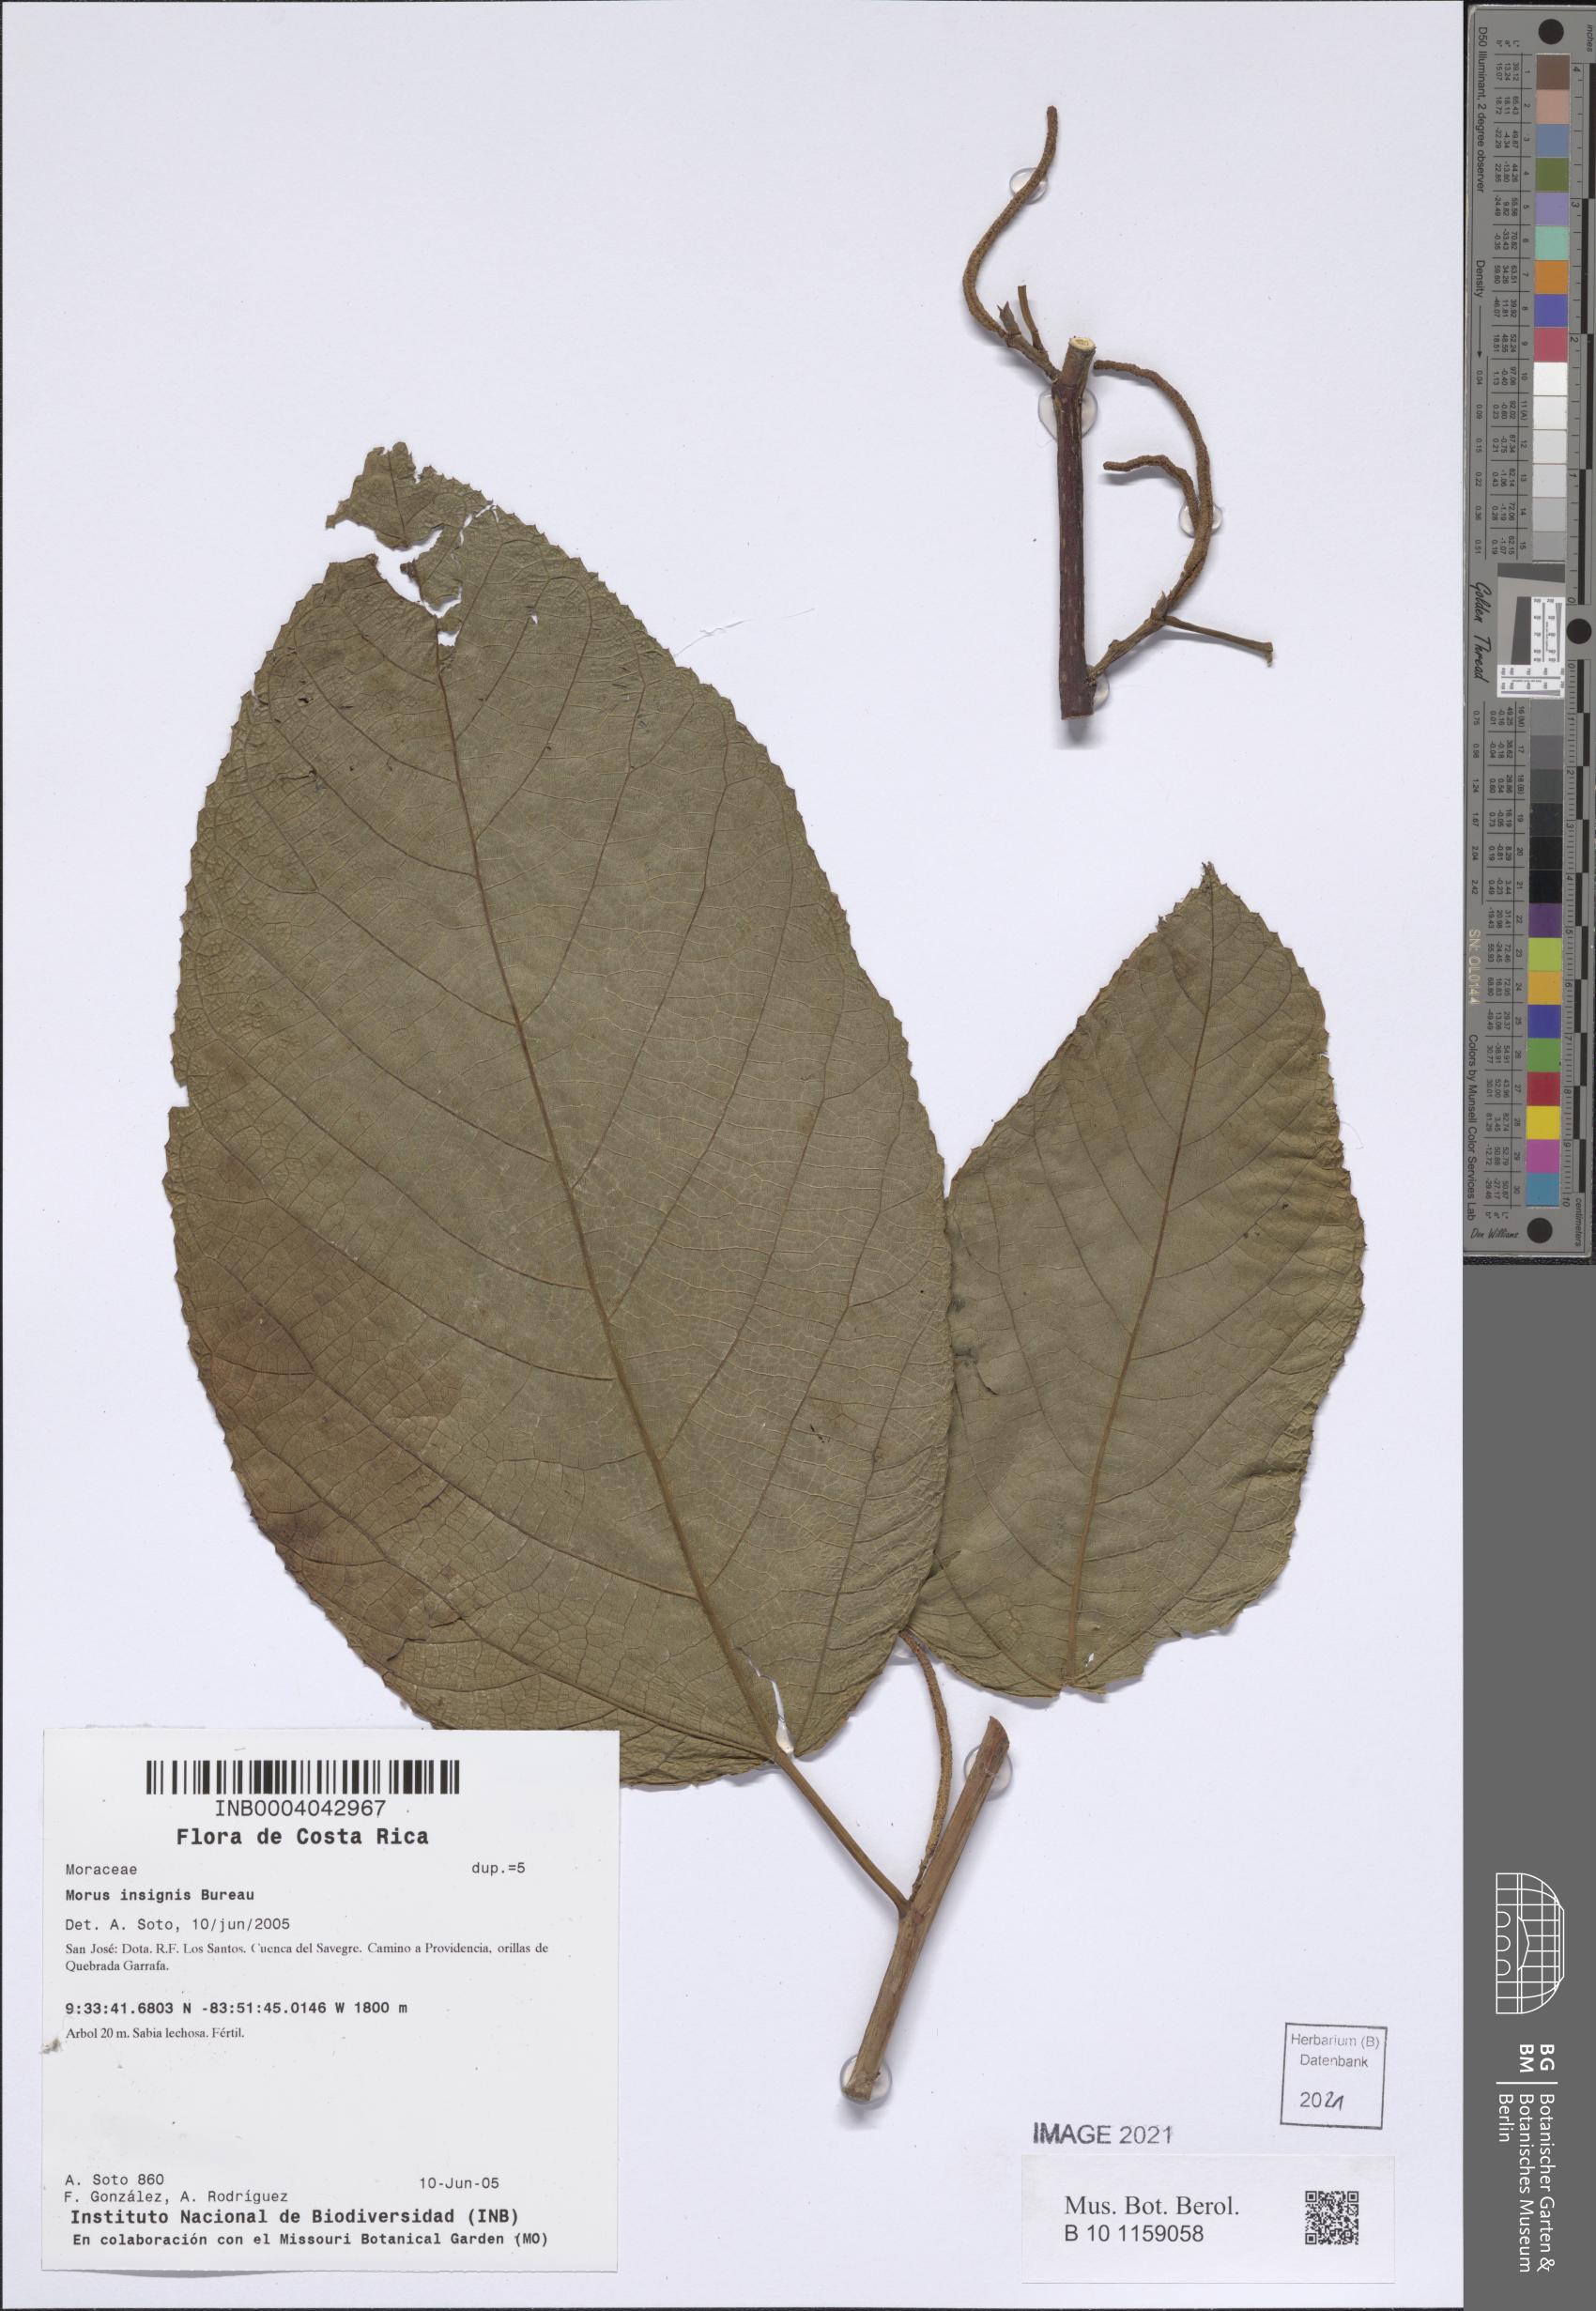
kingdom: Plantae
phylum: Tracheophyta
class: Magnoliopsida
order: Rosales
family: Moraceae
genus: Paratrophis
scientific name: Paratrophis insignis
